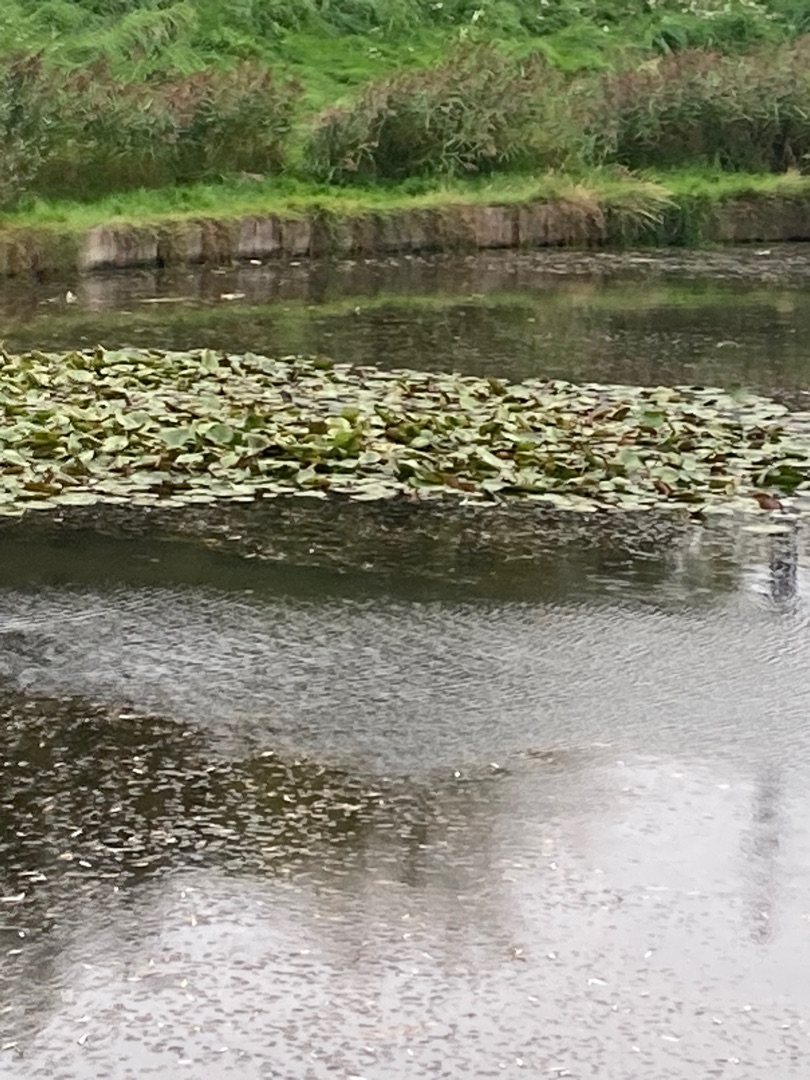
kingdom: Plantae
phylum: Tracheophyta
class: Magnoliopsida
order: Nymphaeales
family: Nymphaeaceae
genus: Nymphaea
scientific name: Nymphaea alba
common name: Hvid åkande
